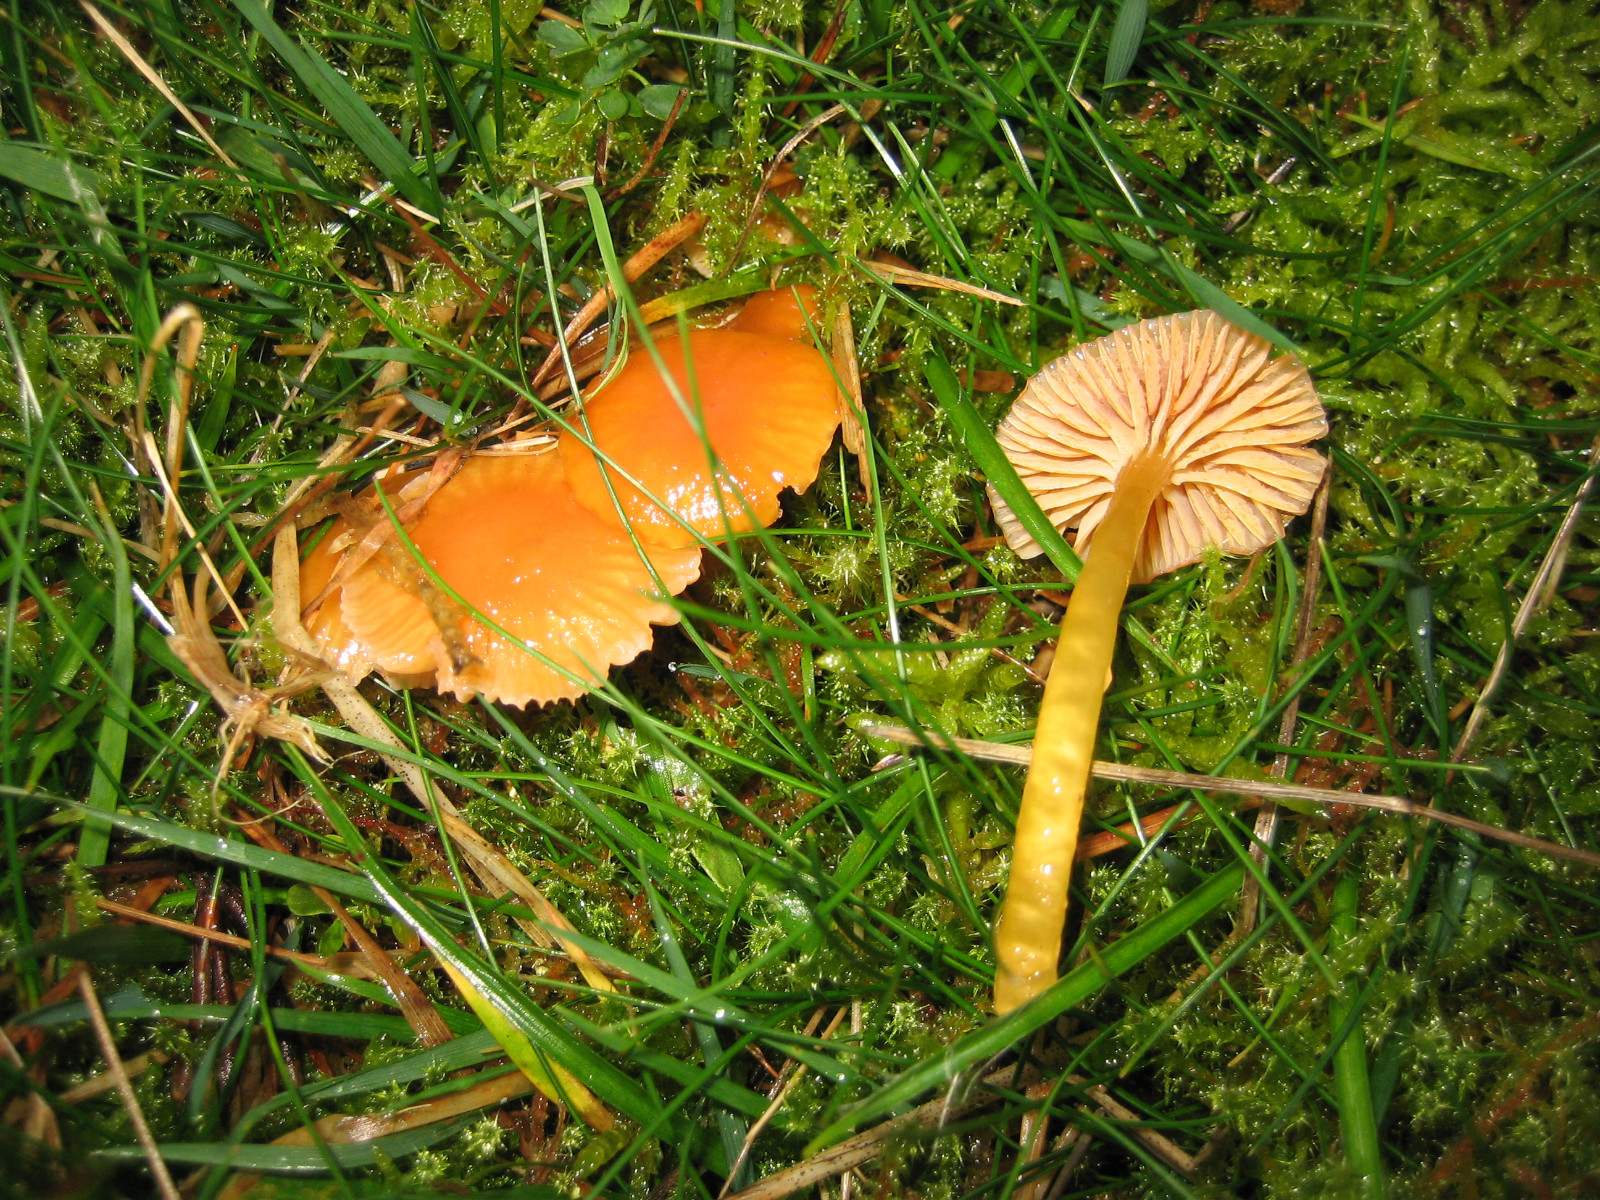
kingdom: Fungi
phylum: Basidiomycota
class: Agaricomycetes
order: Agaricales
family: Hygrophoraceae
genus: Gliophorus
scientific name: Gliophorus laetus
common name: brusk-vokshat
